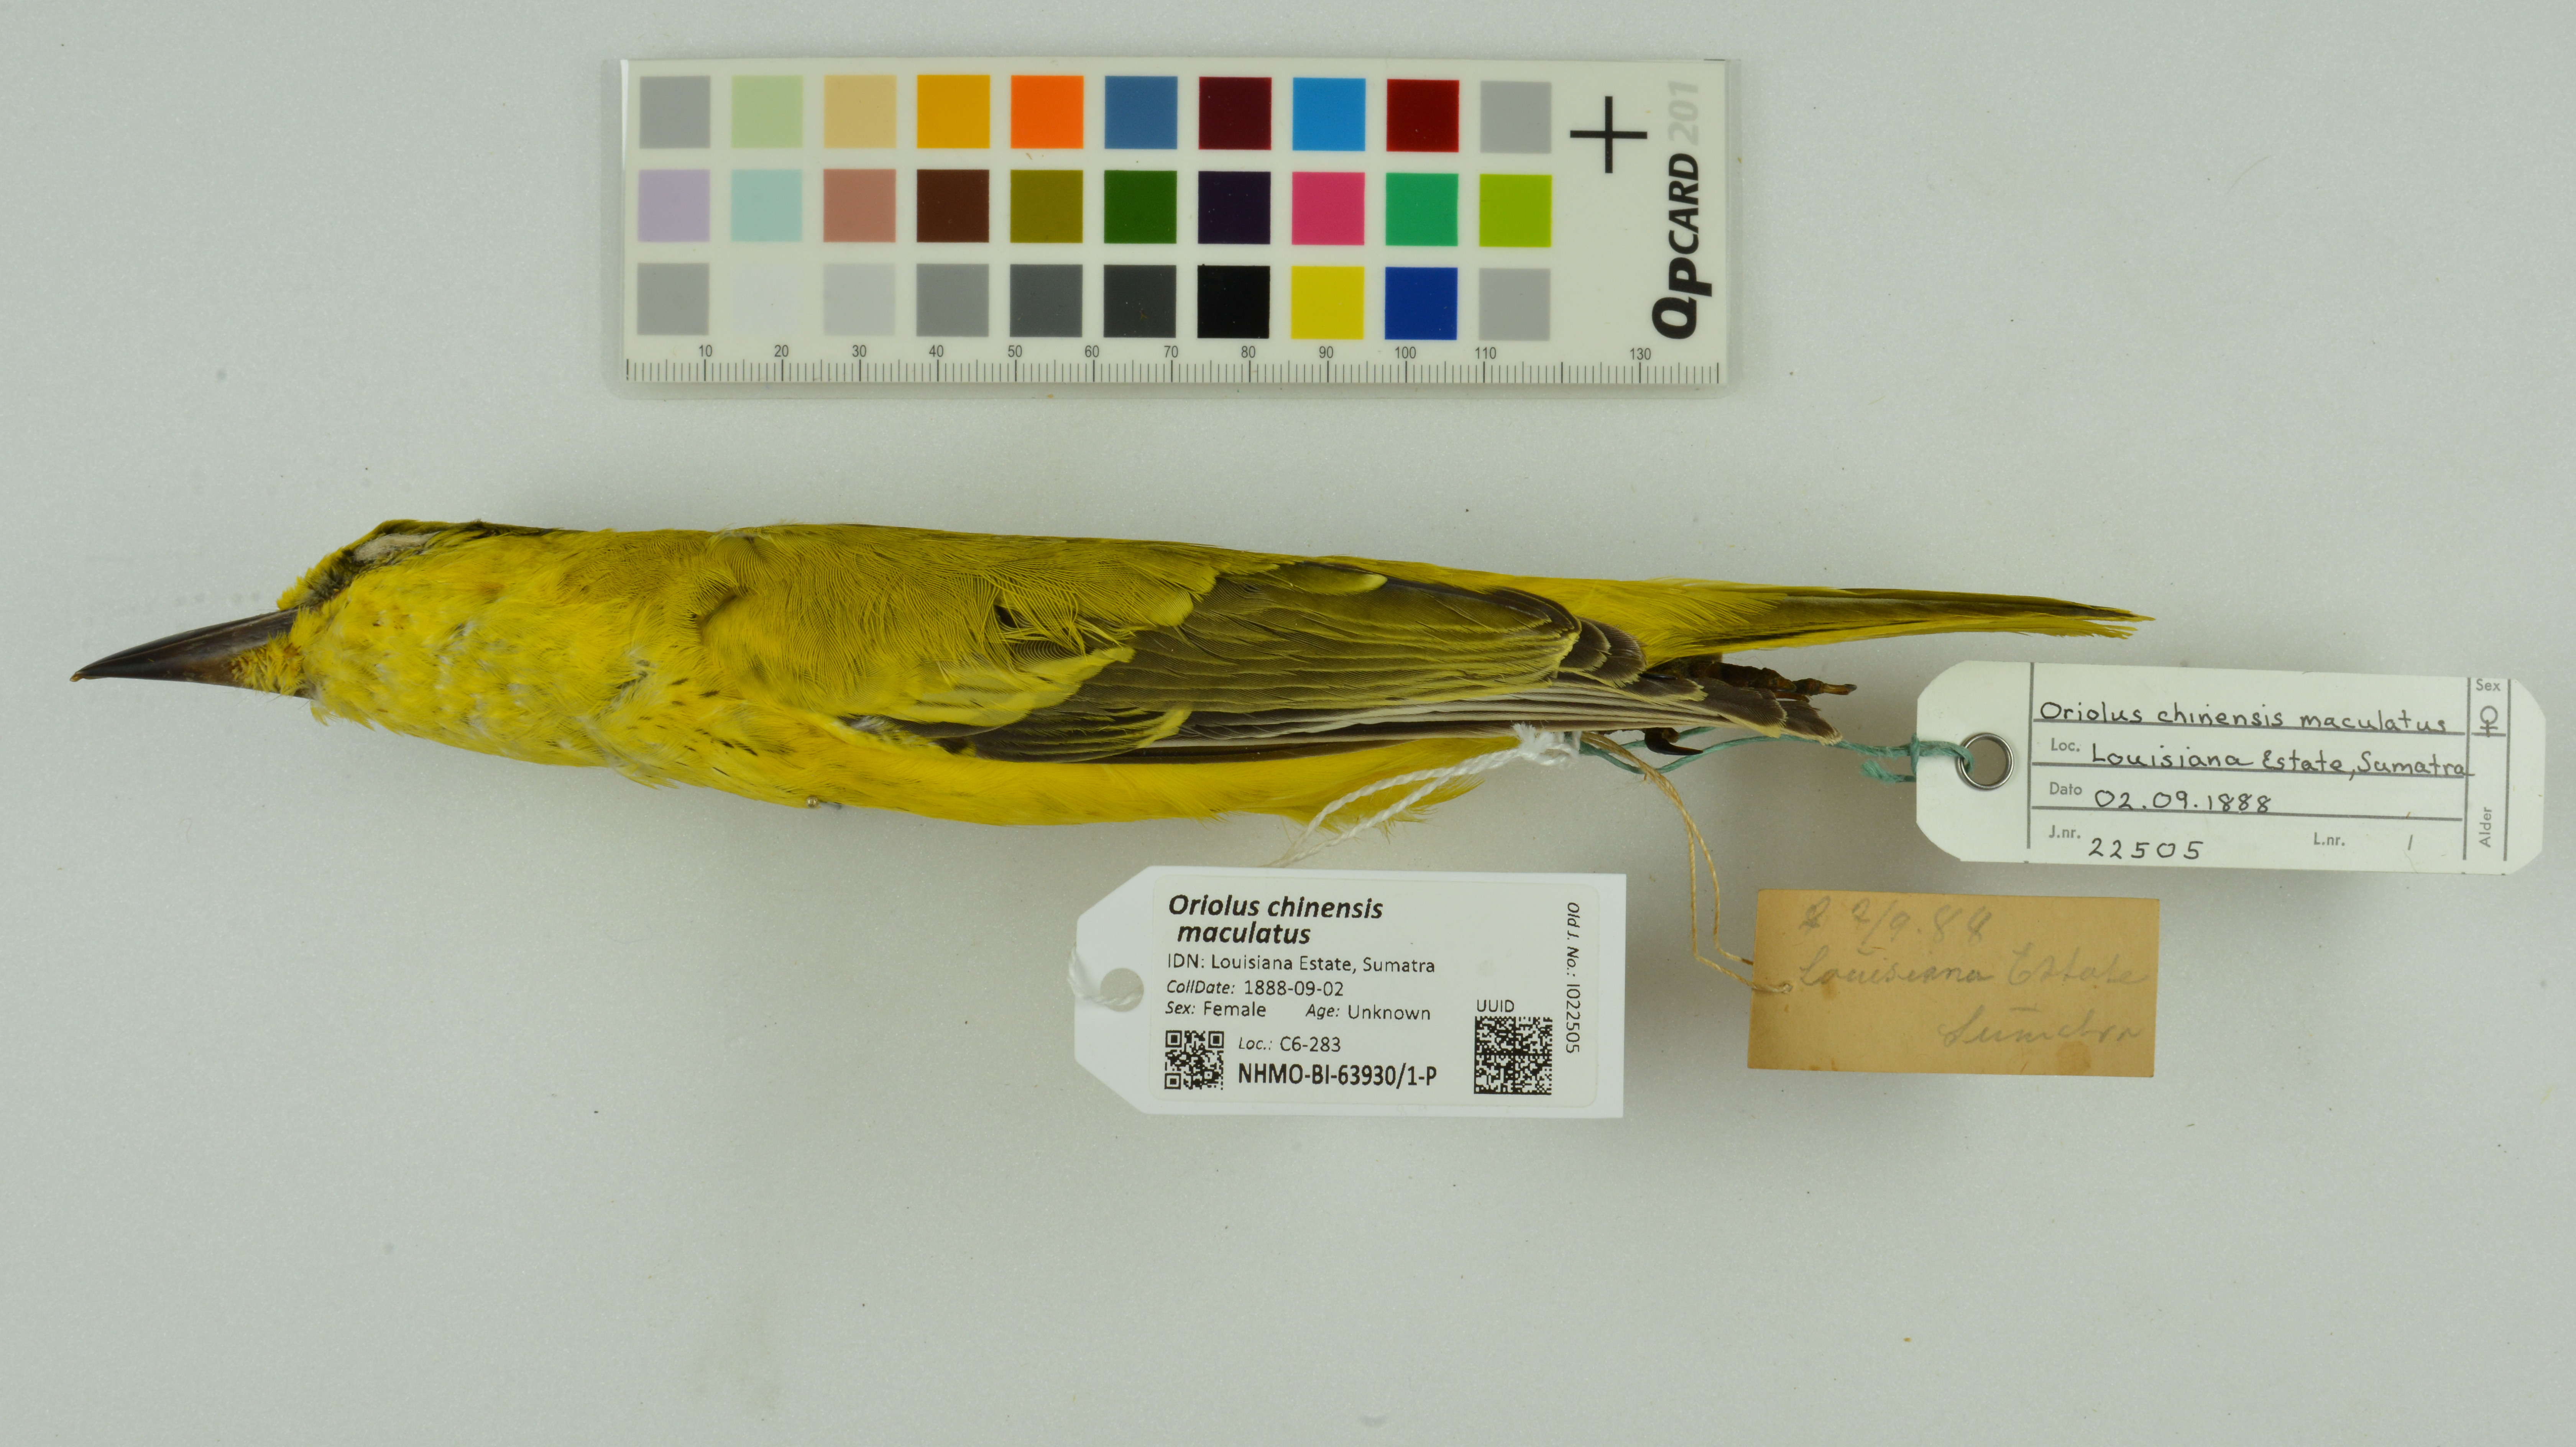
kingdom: Animalia
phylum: Chordata
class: Aves
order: Passeriformes
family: Oriolidae
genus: Oriolus
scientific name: Oriolus chinensis
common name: Black-naped oriole
